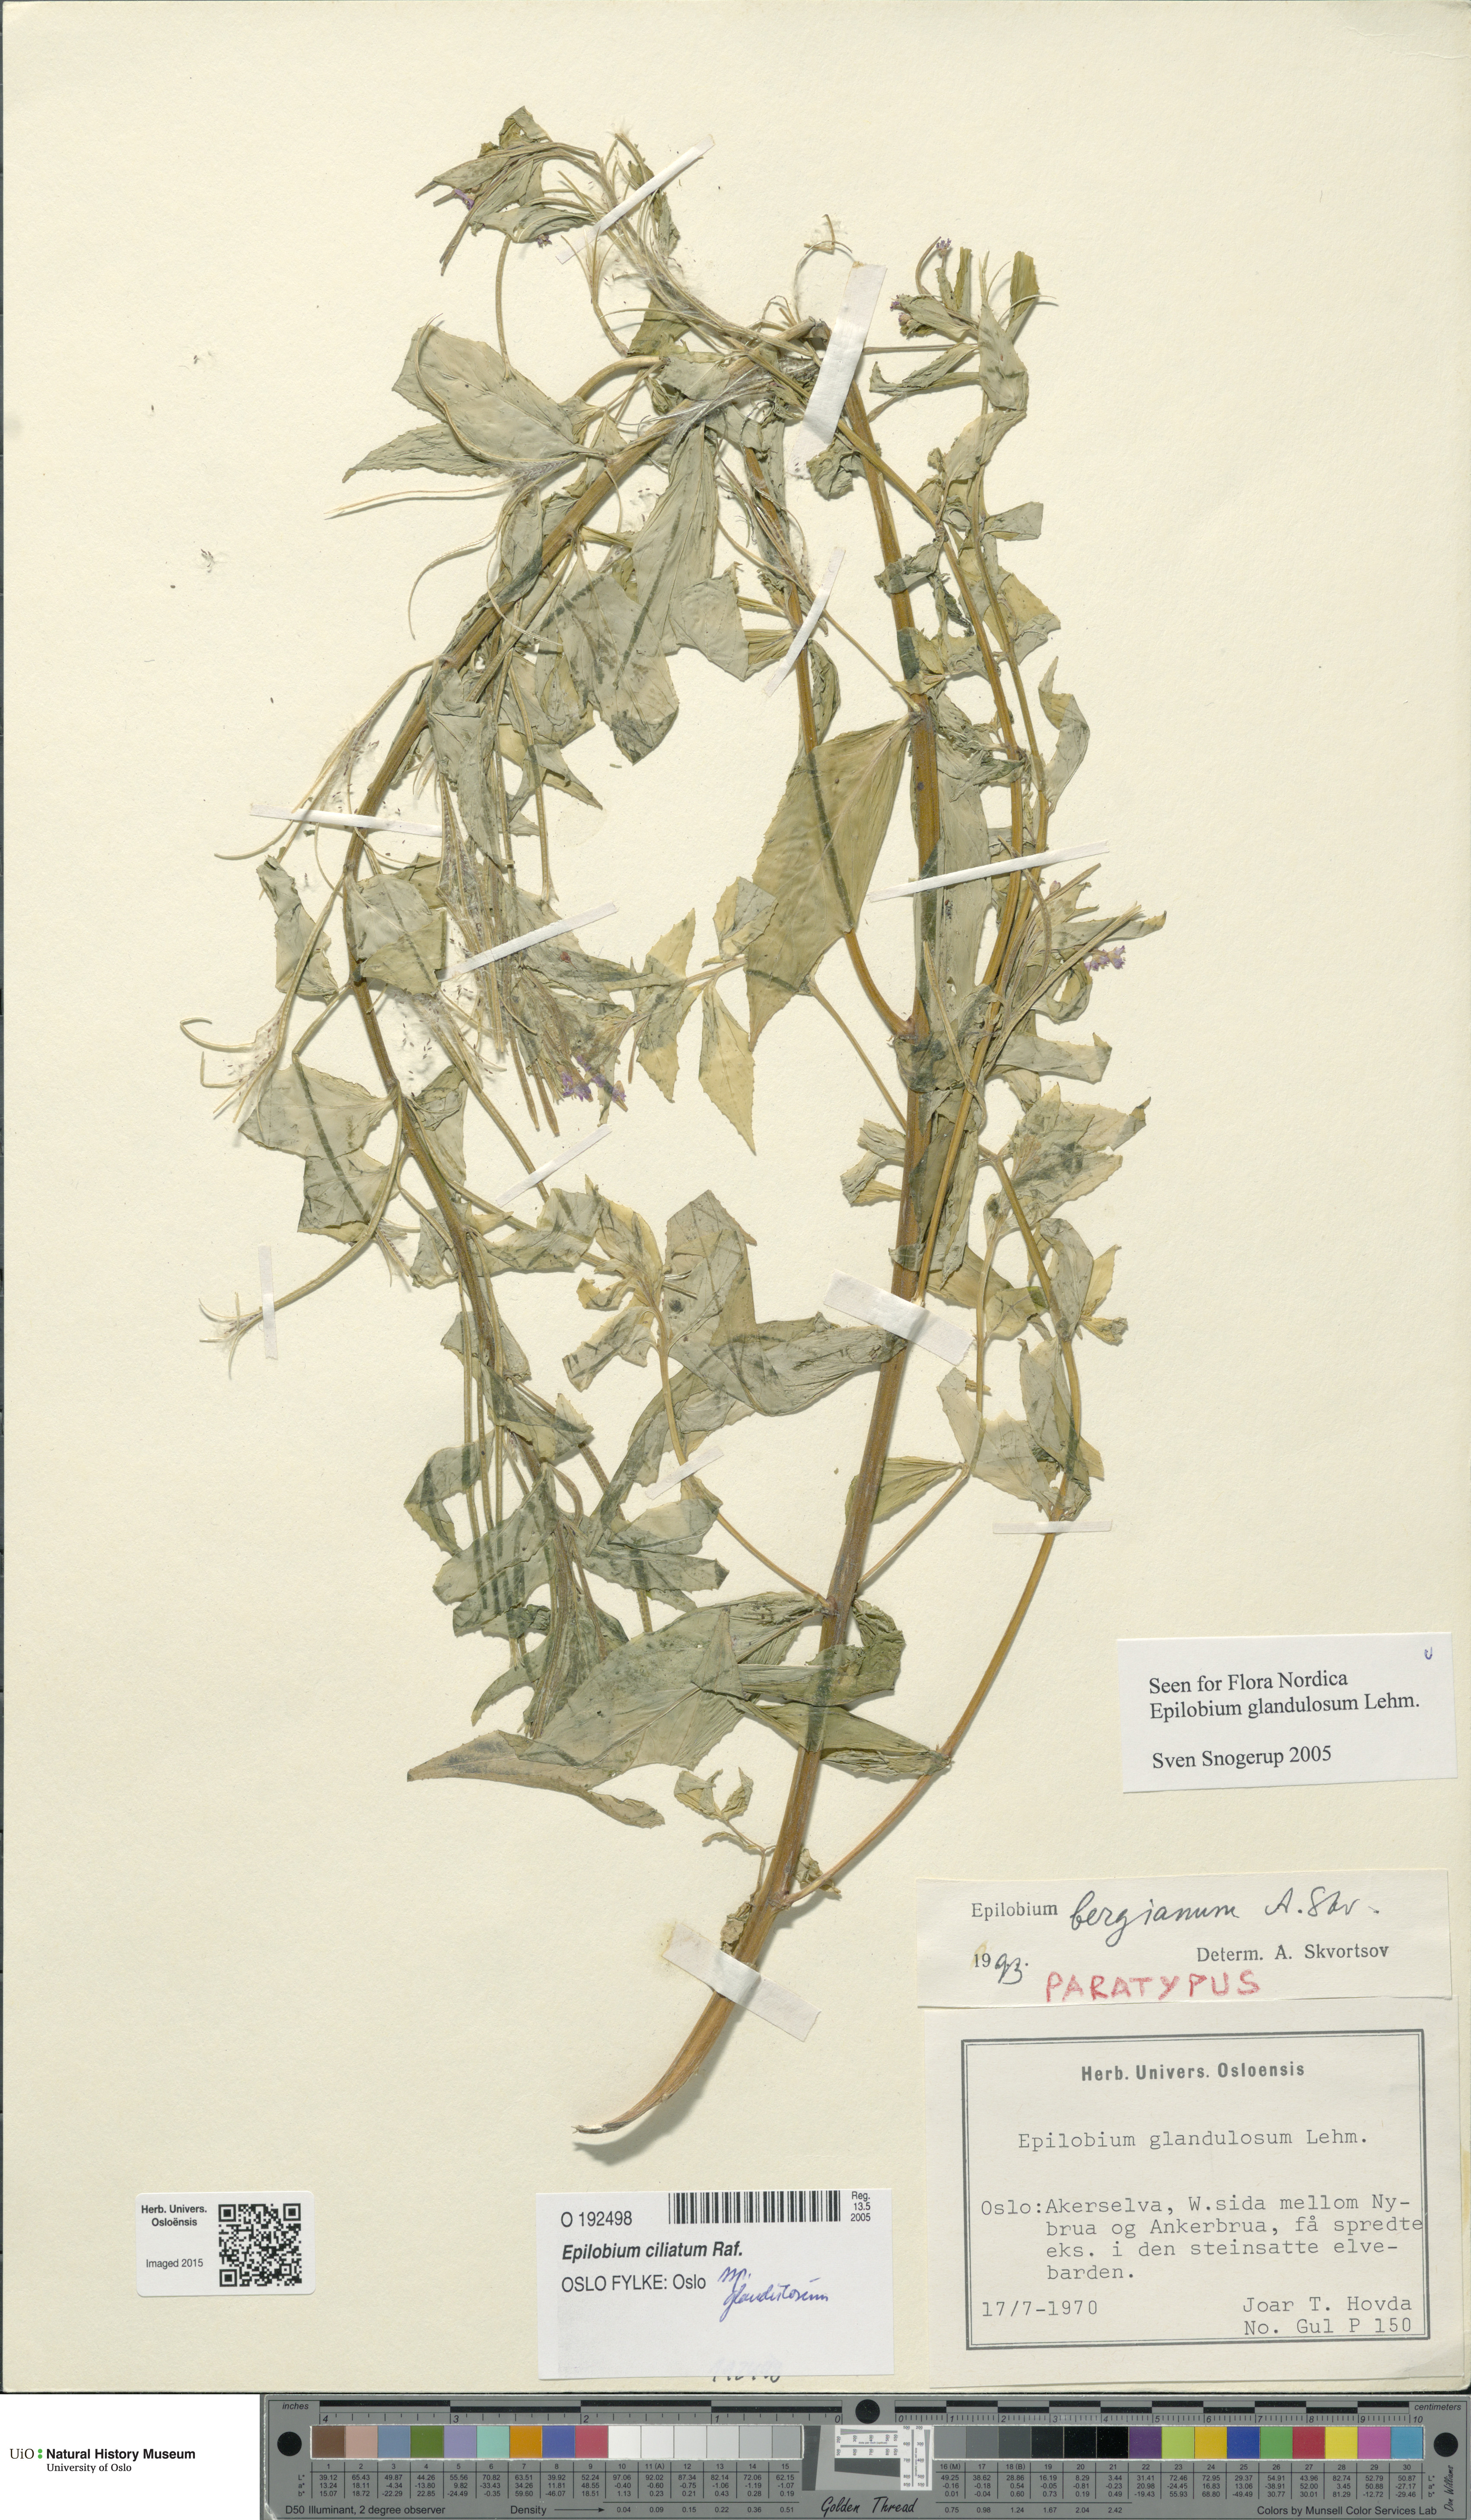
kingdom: Plantae
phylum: Tracheophyta
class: Magnoliopsida
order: Myrtales
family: Onagraceae
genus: Epilobium
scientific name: Epilobium ciliatum
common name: American willowherb
